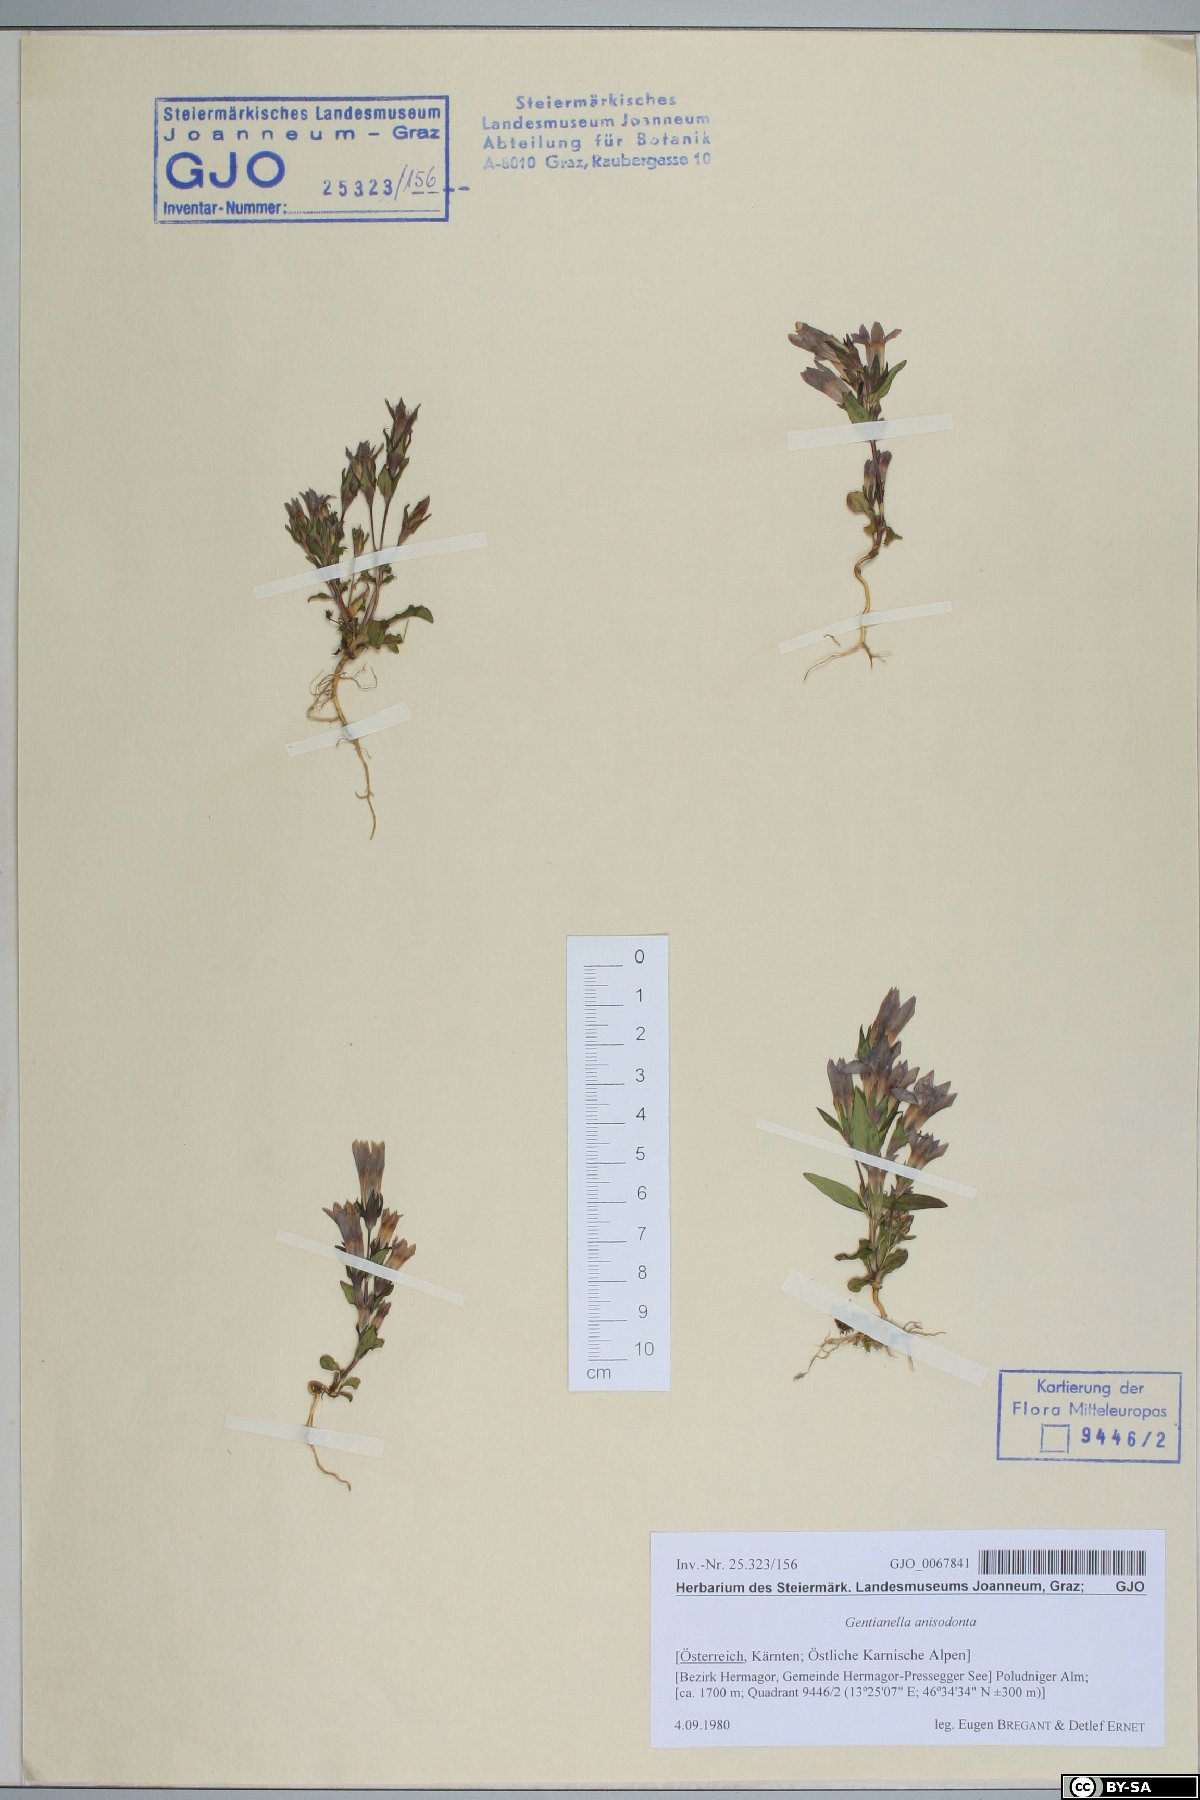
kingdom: Plantae
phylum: Tracheophyta
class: Magnoliopsida
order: Gentianales
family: Gentianaceae
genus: Gentianella
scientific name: Gentianella anisodonta
